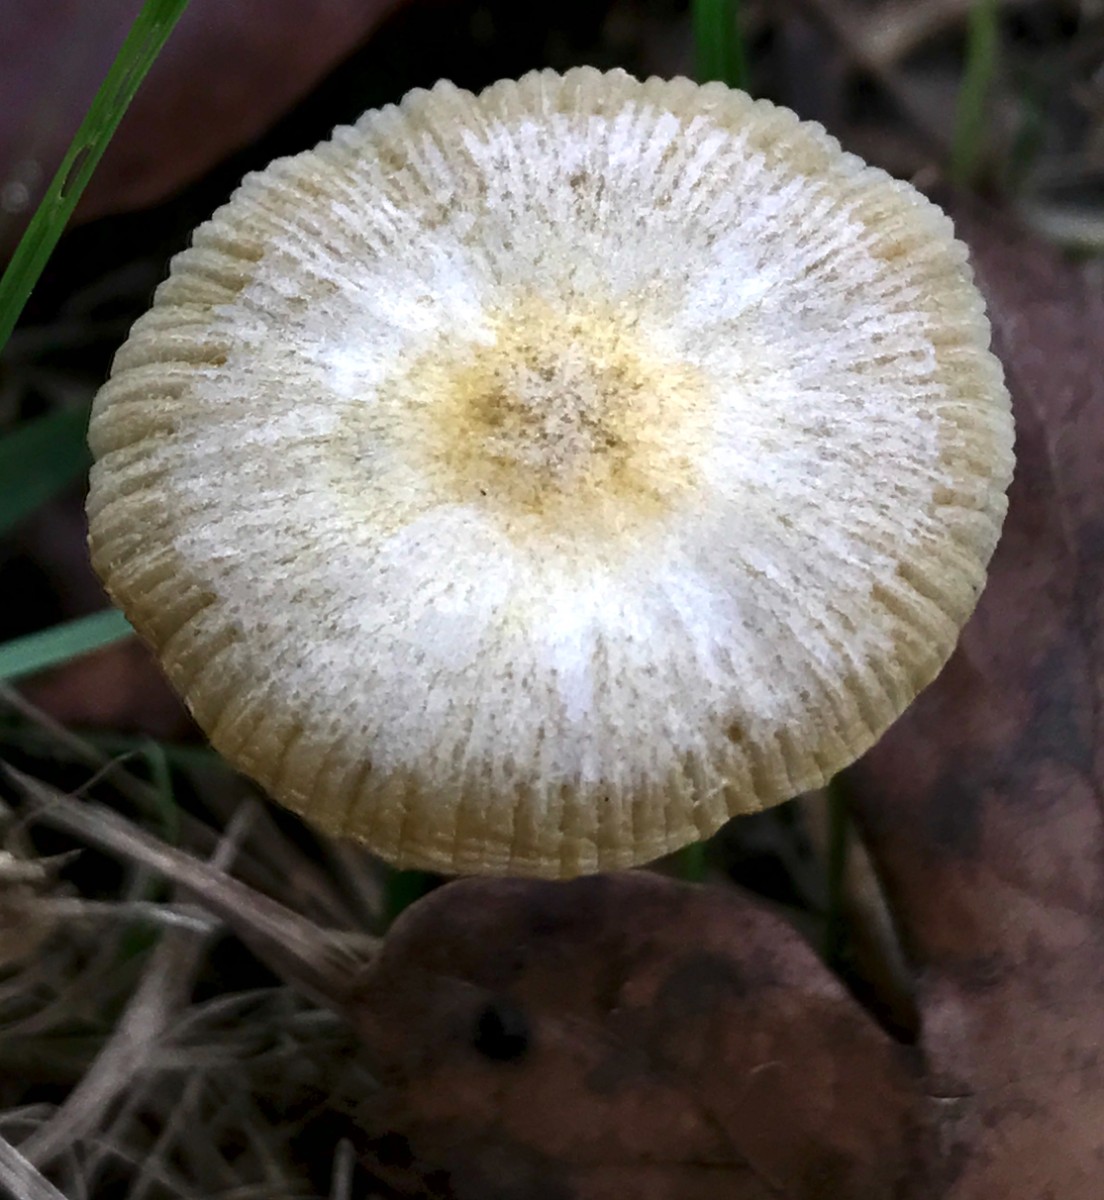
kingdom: Fungi
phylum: Basidiomycota
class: Agaricomycetes
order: Agaricales
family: Bolbitiaceae
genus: Bolbitius
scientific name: Bolbitius titubans
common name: almindelig gulhat
